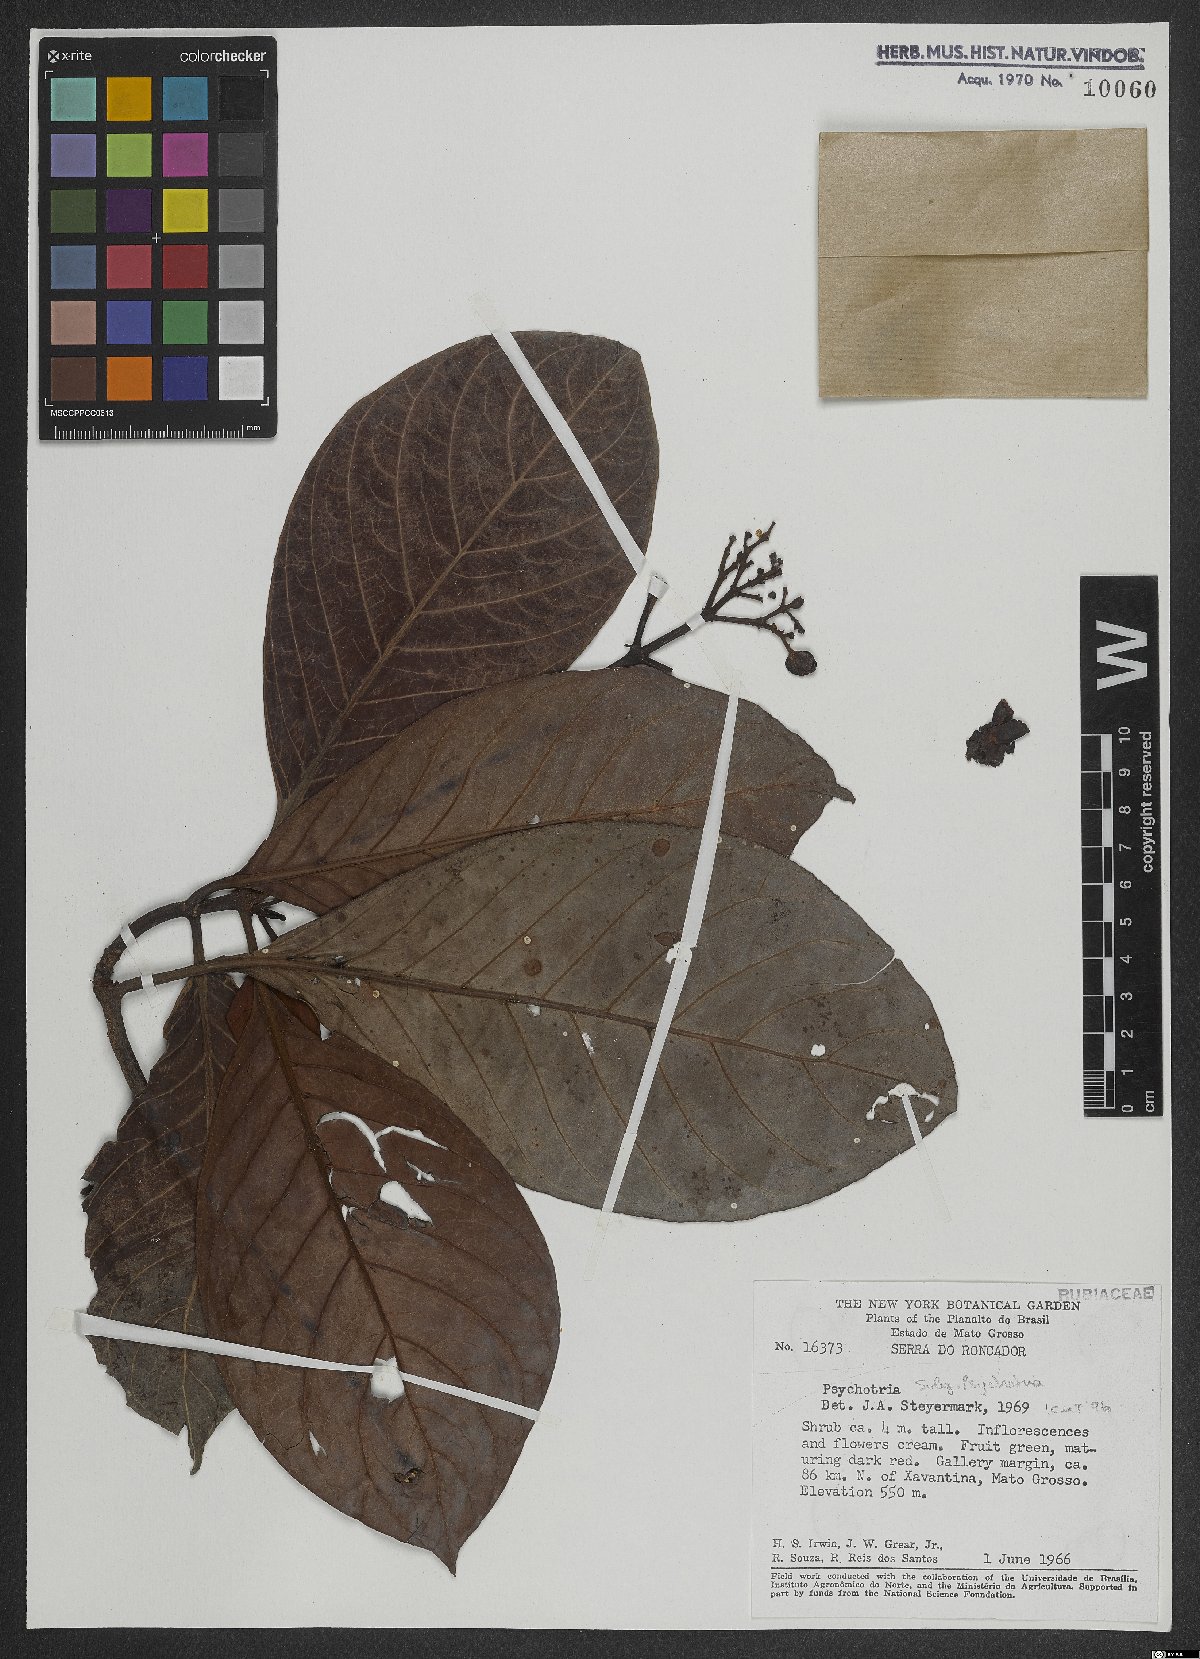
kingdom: Plantae
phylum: Tracheophyta
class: Magnoliopsida
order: Gentianales
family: Rubiaceae
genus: Psychotria
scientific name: Psychotria
